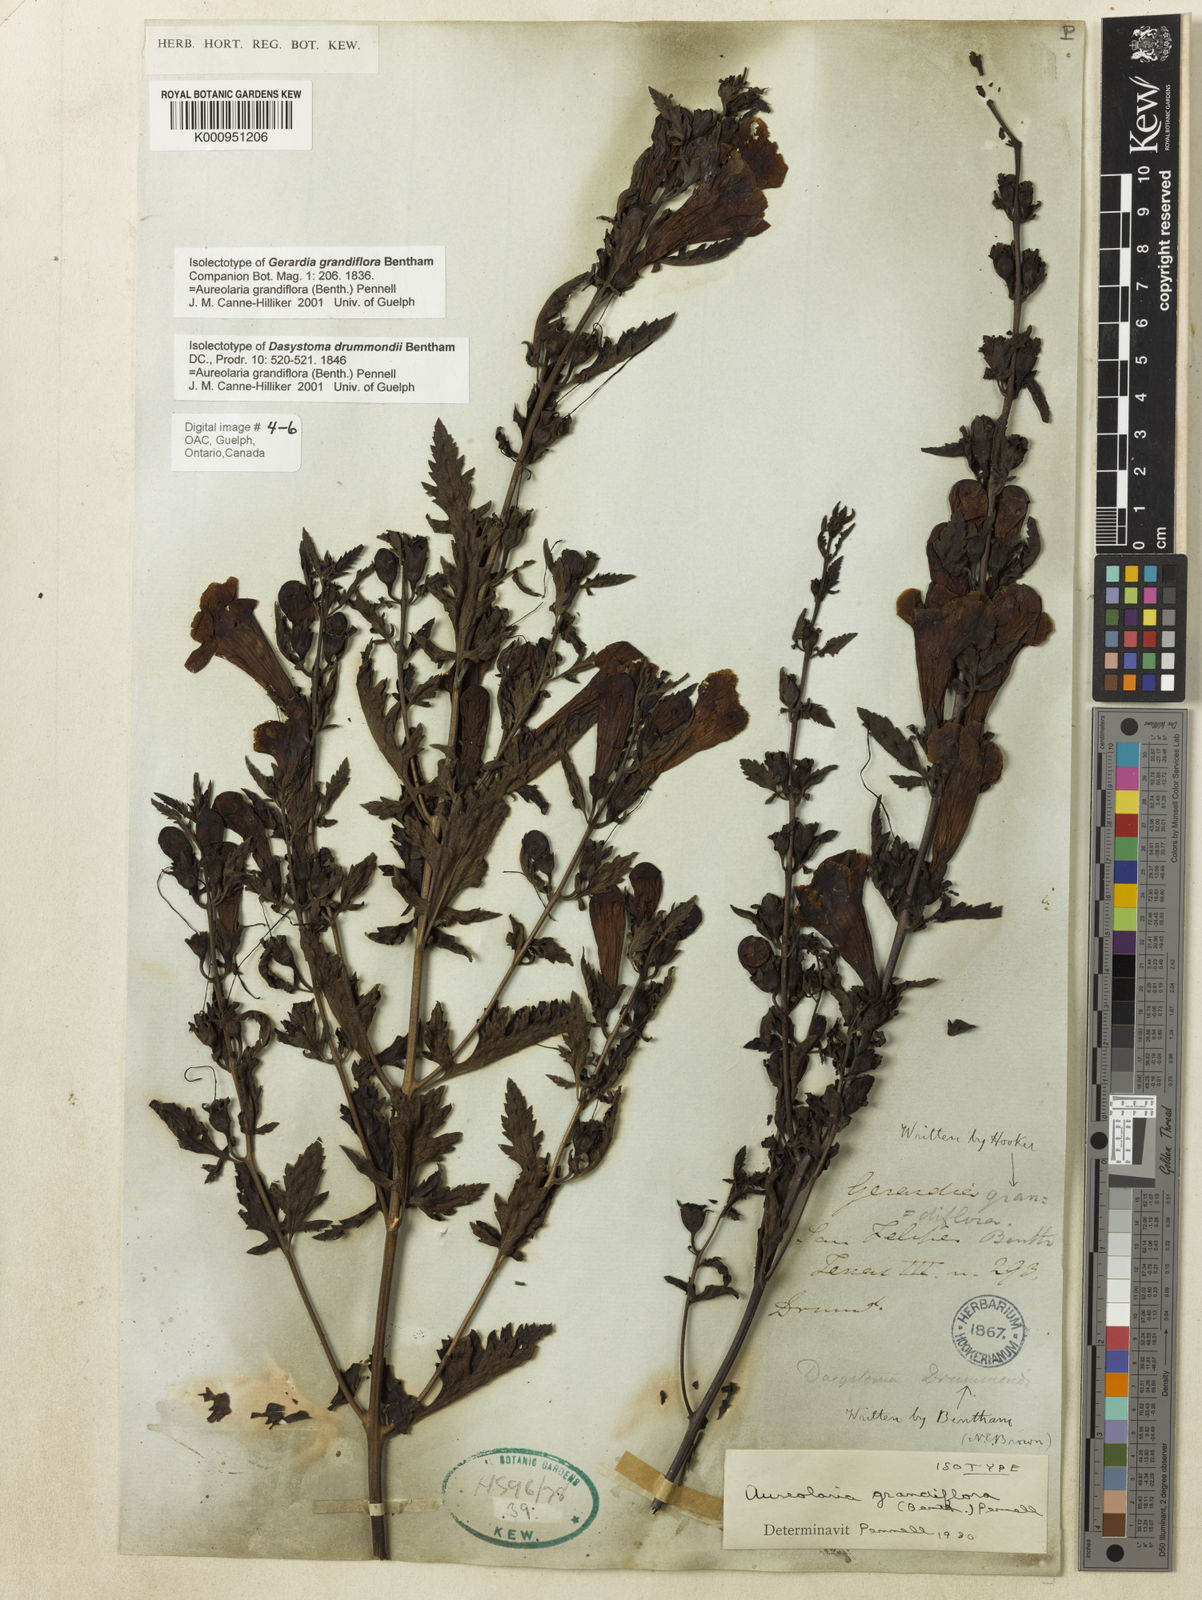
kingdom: Plantae
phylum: Tracheophyta
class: Magnoliopsida
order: Lamiales
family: Orobanchaceae
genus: Aureolaria
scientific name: Aureolaria grandiflora
